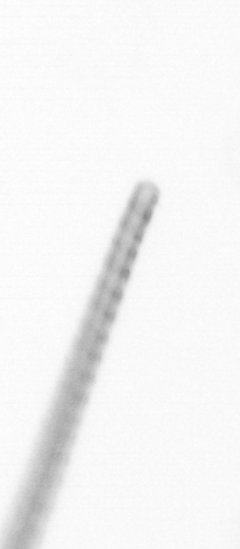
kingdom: Chromista
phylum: Ochrophyta
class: Bacillariophyceae
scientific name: Bacillariophyceae
